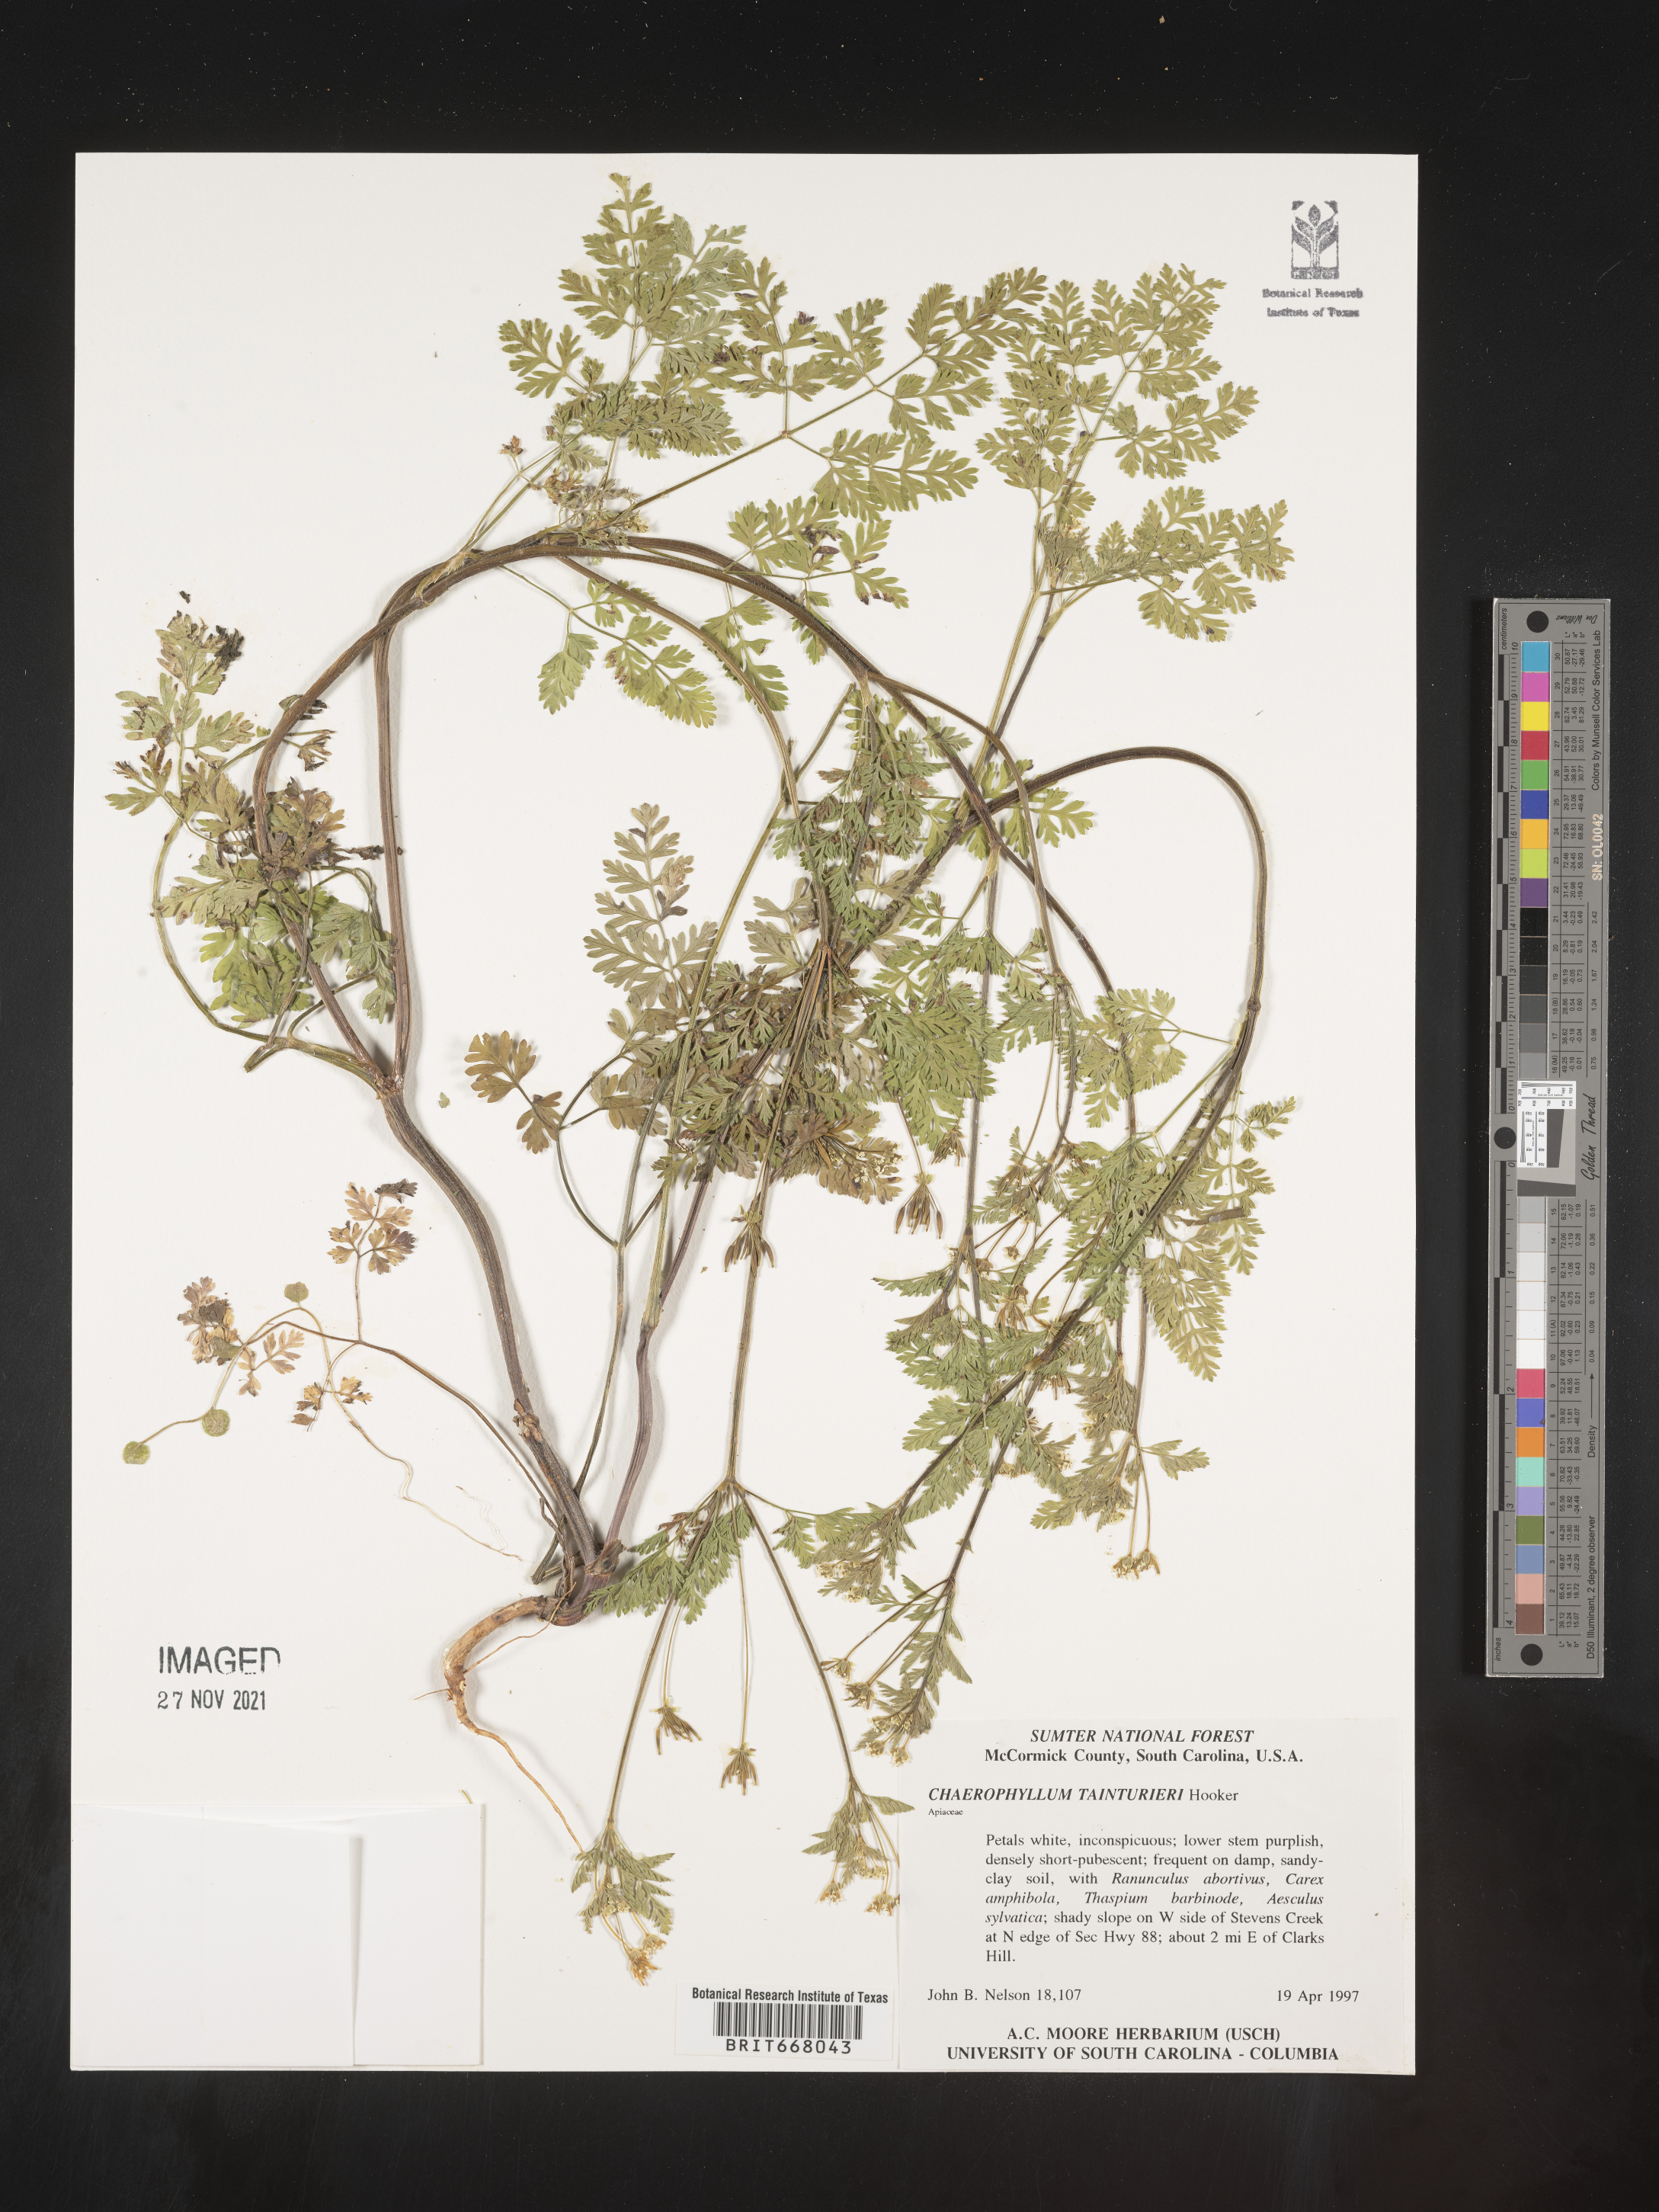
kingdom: Plantae
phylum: Tracheophyta
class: Magnoliopsida
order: Apiales
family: Apiaceae
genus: Chaerophyllum
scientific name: Chaerophyllum tainturieri
